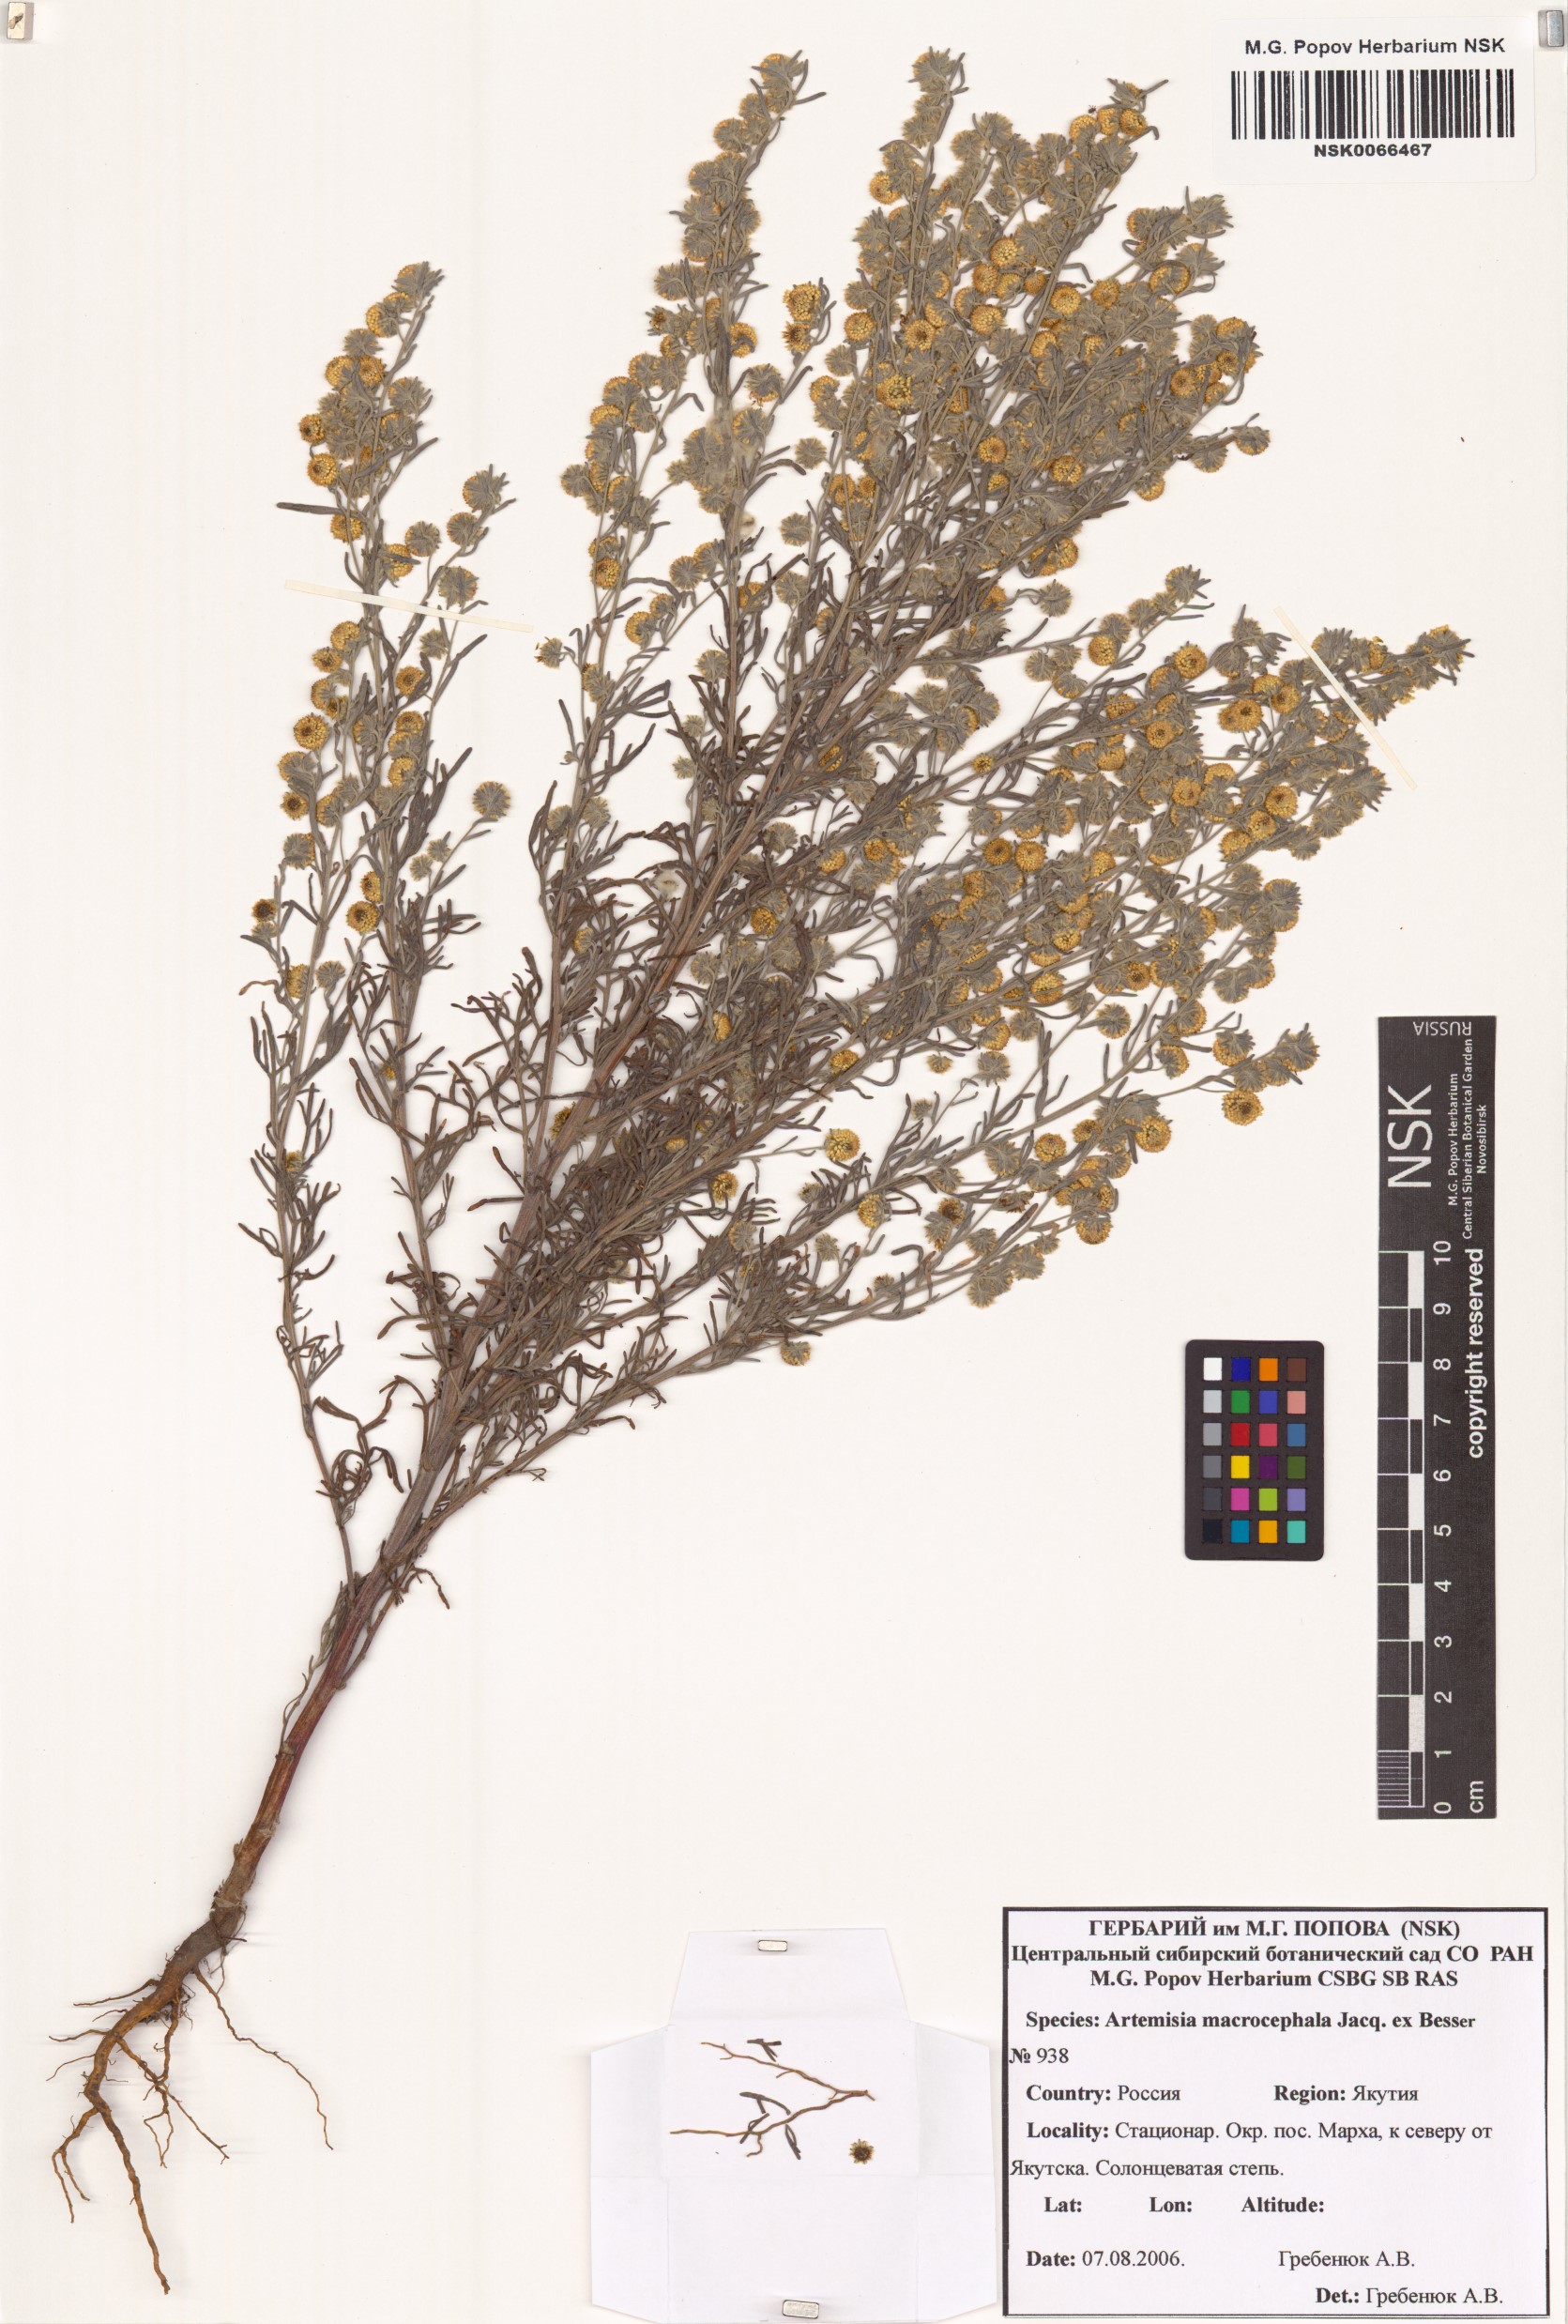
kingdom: Plantae
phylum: Tracheophyta
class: Magnoliopsida
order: Asterales
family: Asteraceae
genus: Artemisia
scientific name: Artemisia macrocephala
